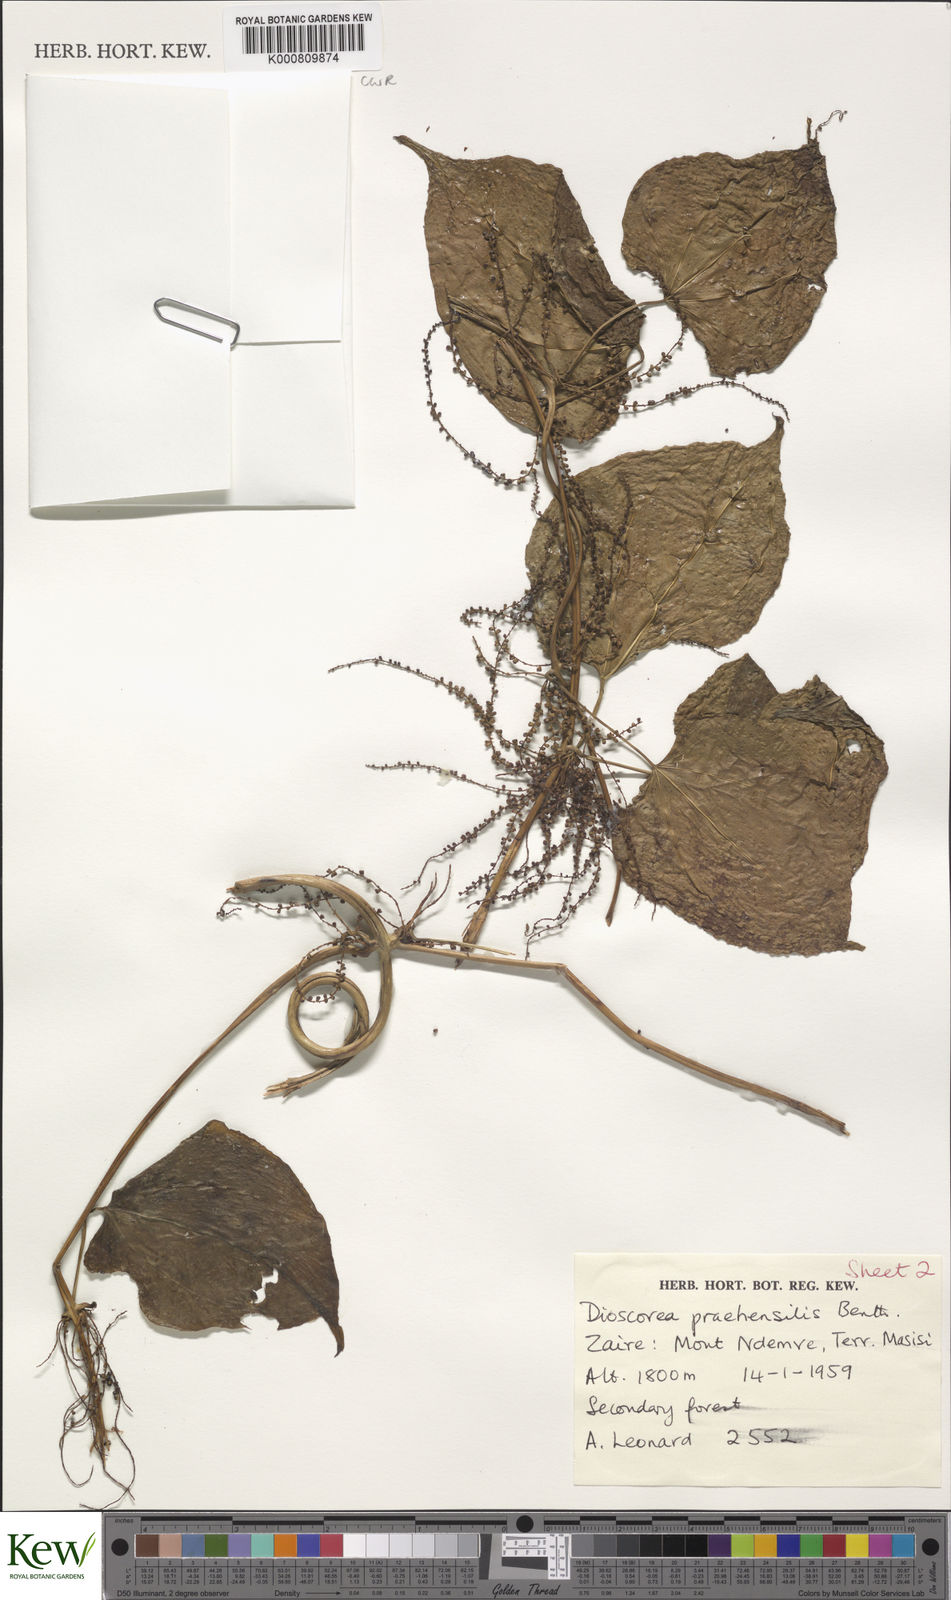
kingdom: Plantae
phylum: Tracheophyta
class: Liliopsida
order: Dioscoreales
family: Dioscoreaceae
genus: Dioscorea
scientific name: Dioscorea praehensilis
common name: Bush yam
